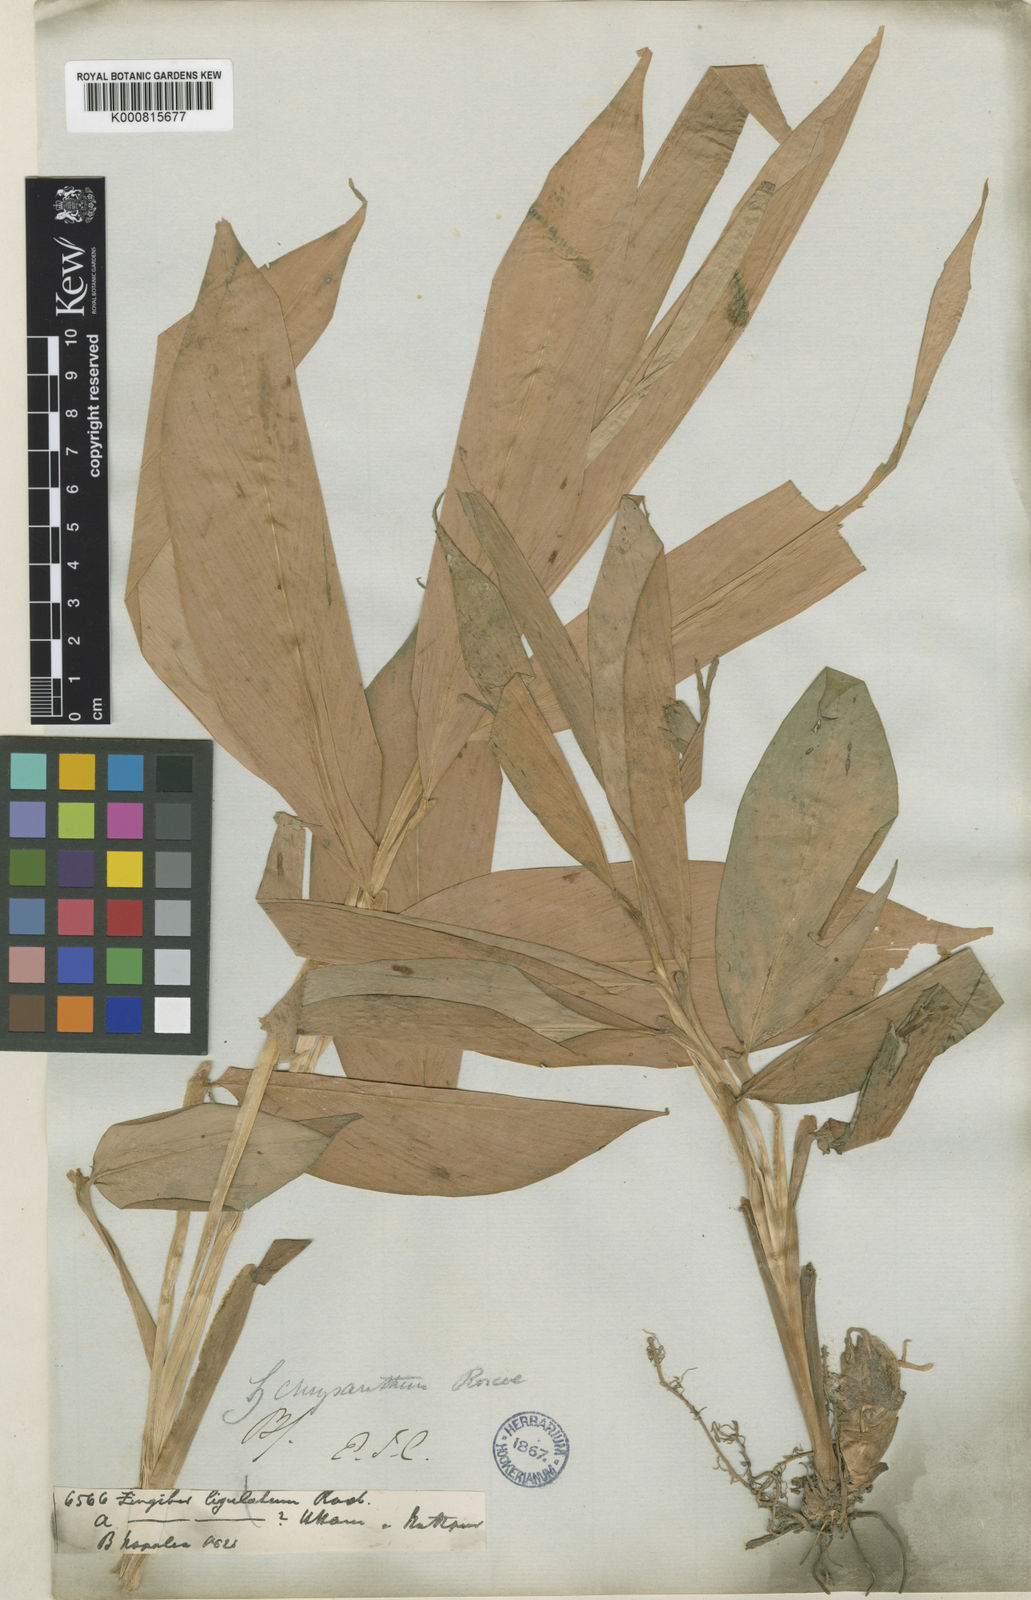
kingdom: Plantae
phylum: Tracheophyta
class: Liliopsida
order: Zingiberales
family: Zingiberaceae
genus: Zingiber
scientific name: Zingiber chrysanthum
